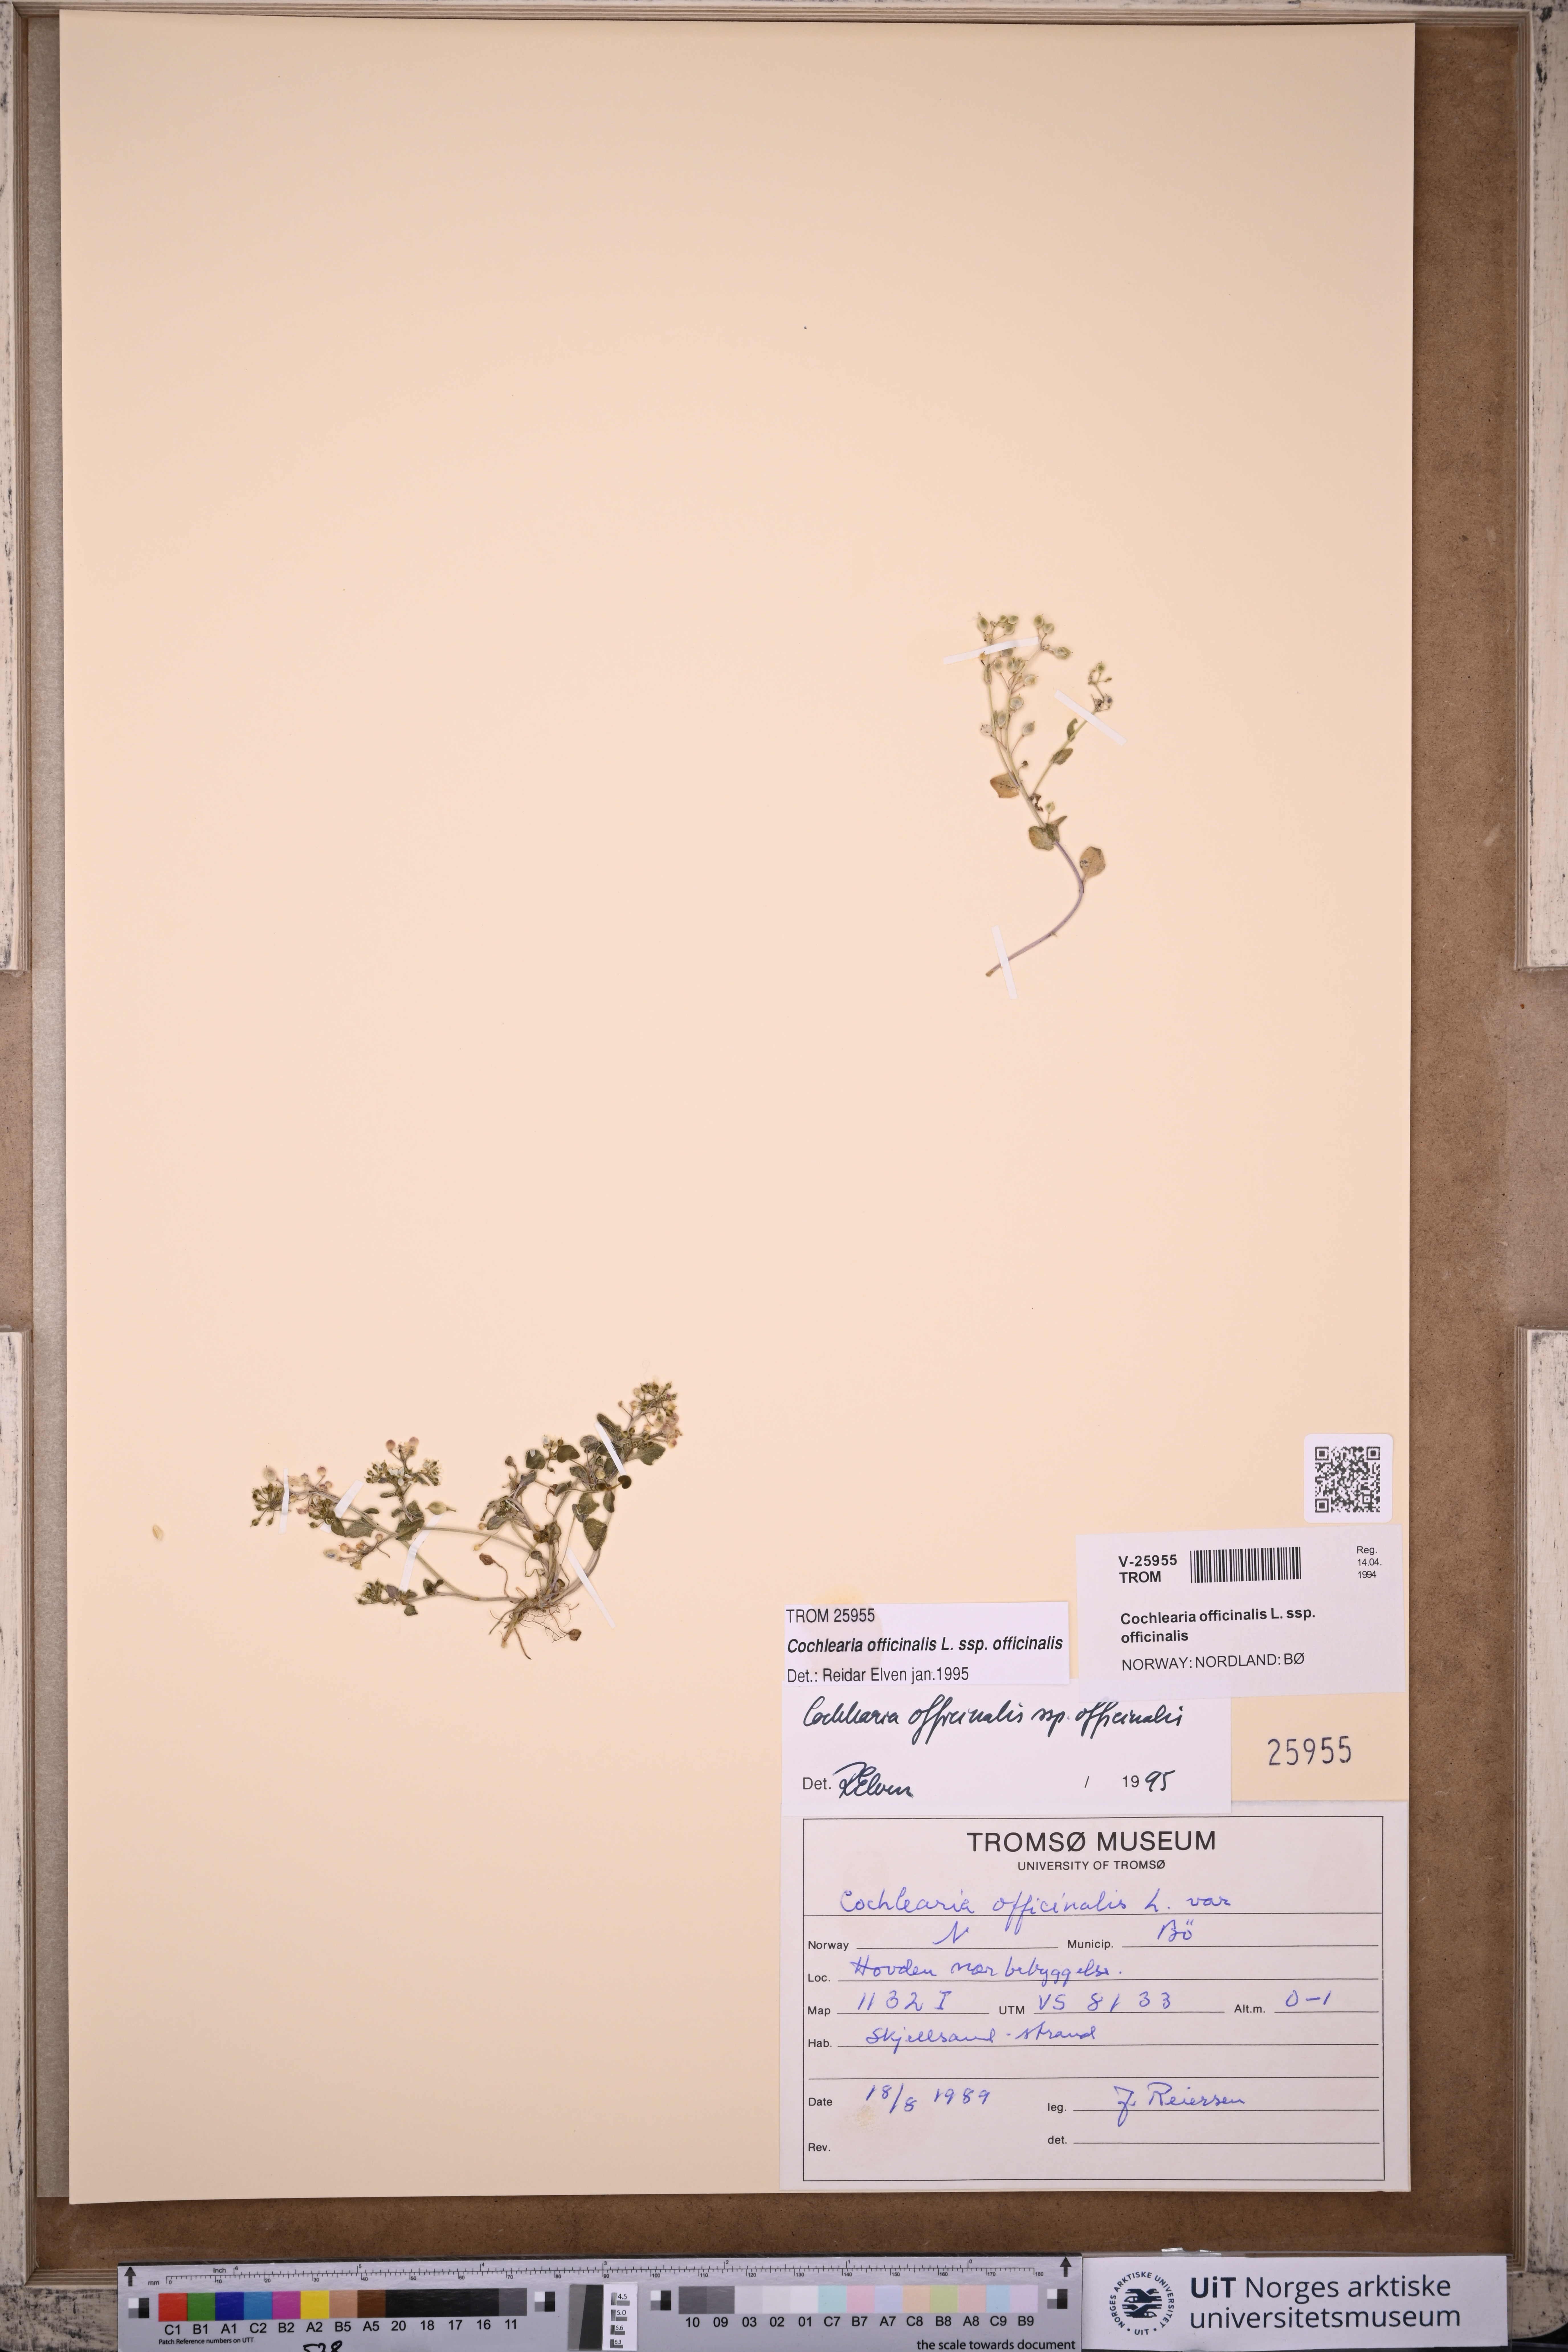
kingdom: Plantae
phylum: Tracheophyta
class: Magnoliopsida
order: Brassicales
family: Brassicaceae
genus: Cochlearia
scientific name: Cochlearia officinalis
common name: Scurvy-grass
